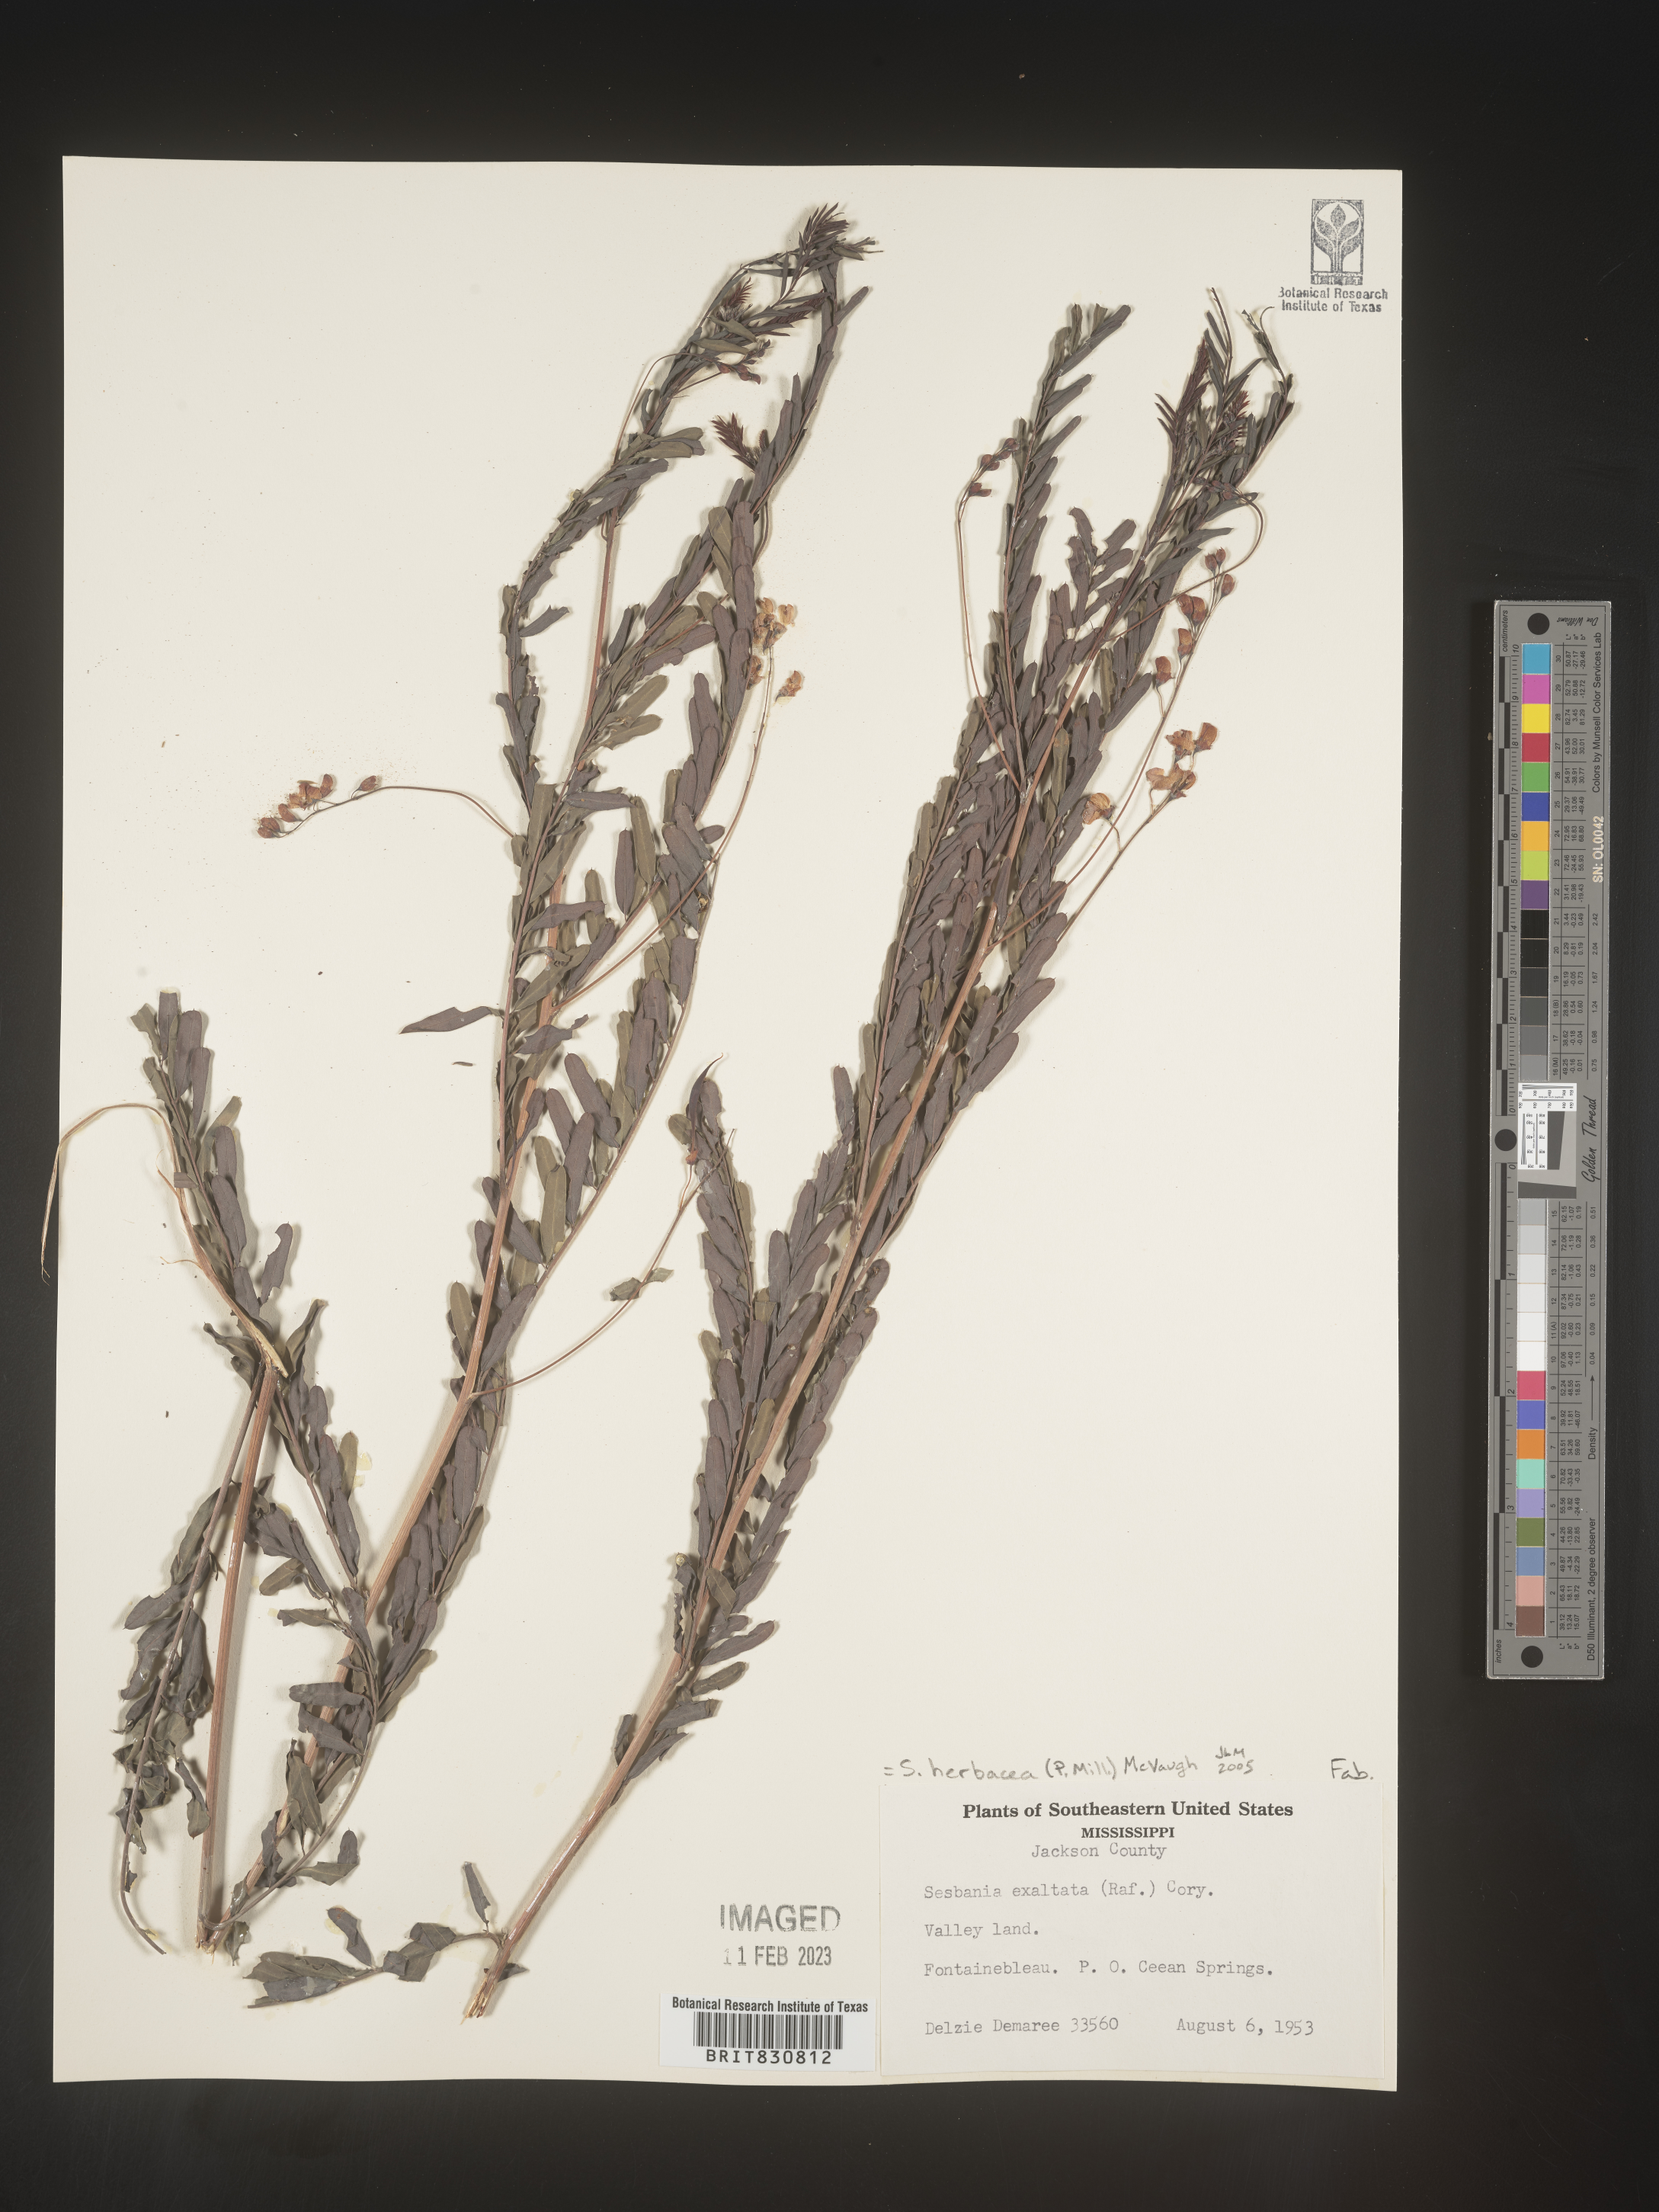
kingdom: Plantae
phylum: Tracheophyta
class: Magnoliopsida
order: Fabales
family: Fabaceae
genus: Sesbania
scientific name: Sesbania herbacea
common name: Bigpod sesbania
